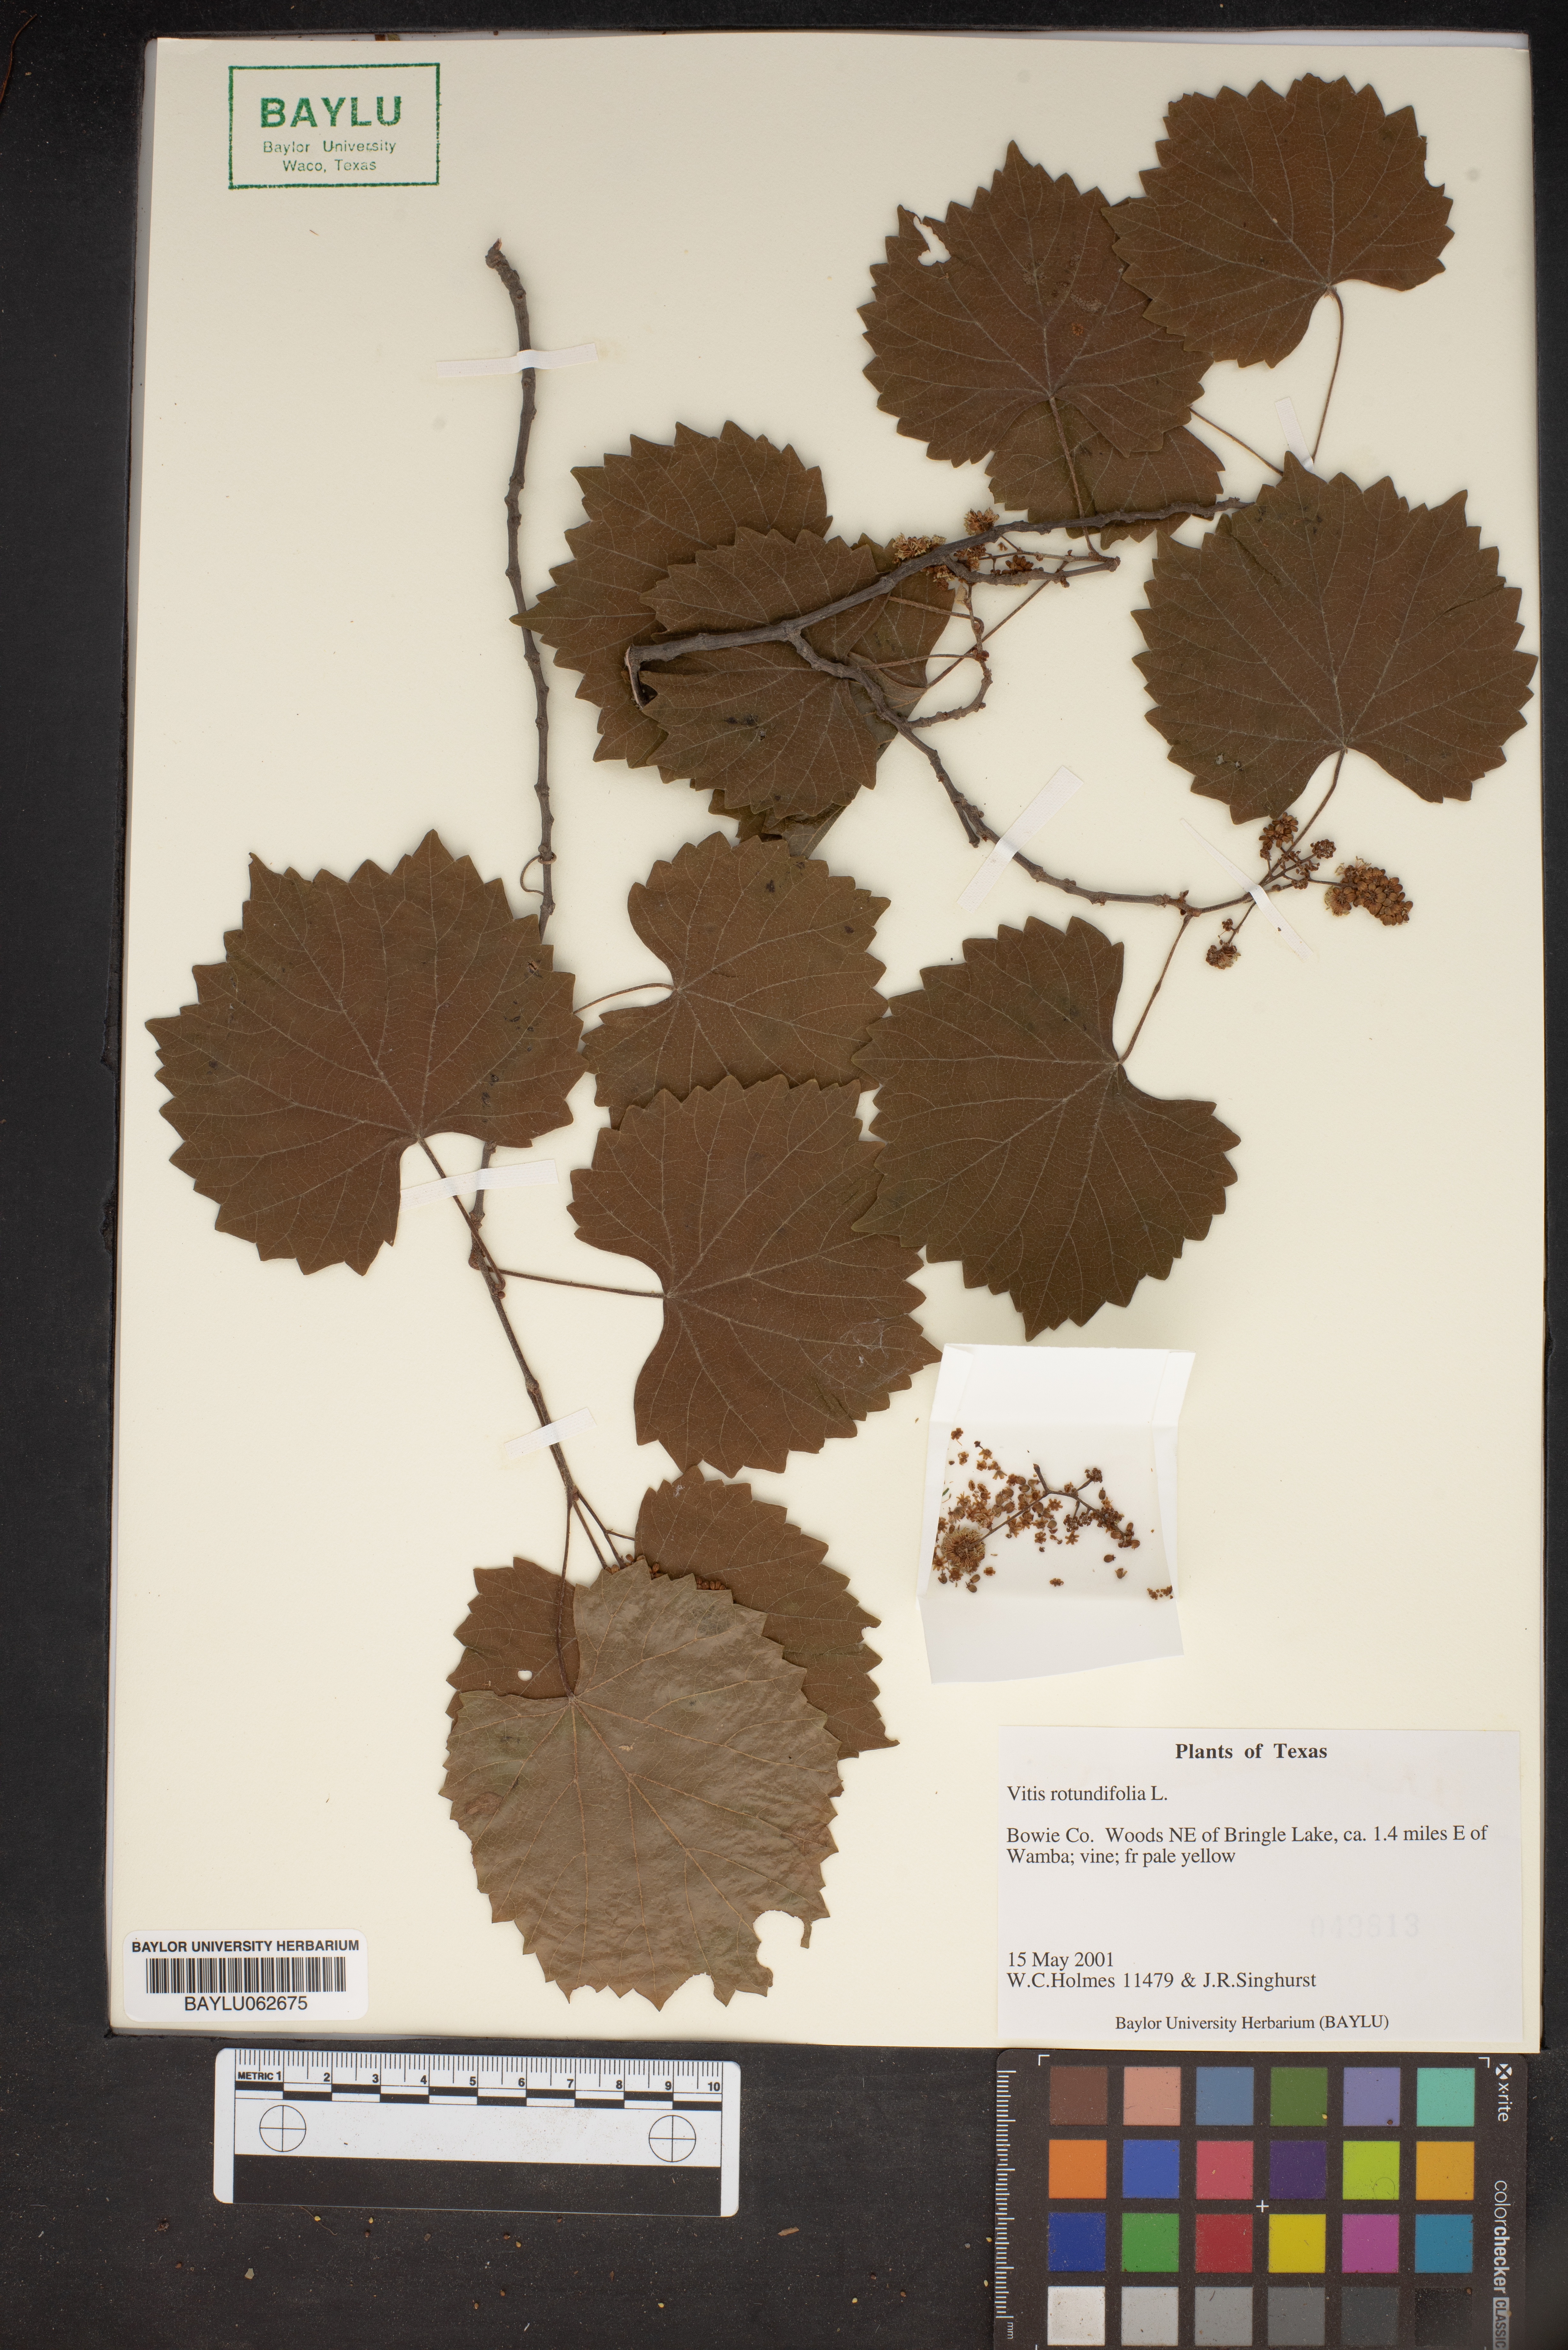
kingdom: Plantae
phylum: Tracheophyta
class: Magnoliopsida
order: Vitales
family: Vitaceae
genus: Vitis
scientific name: Vitis rotundifolia
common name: Muscadine grape
